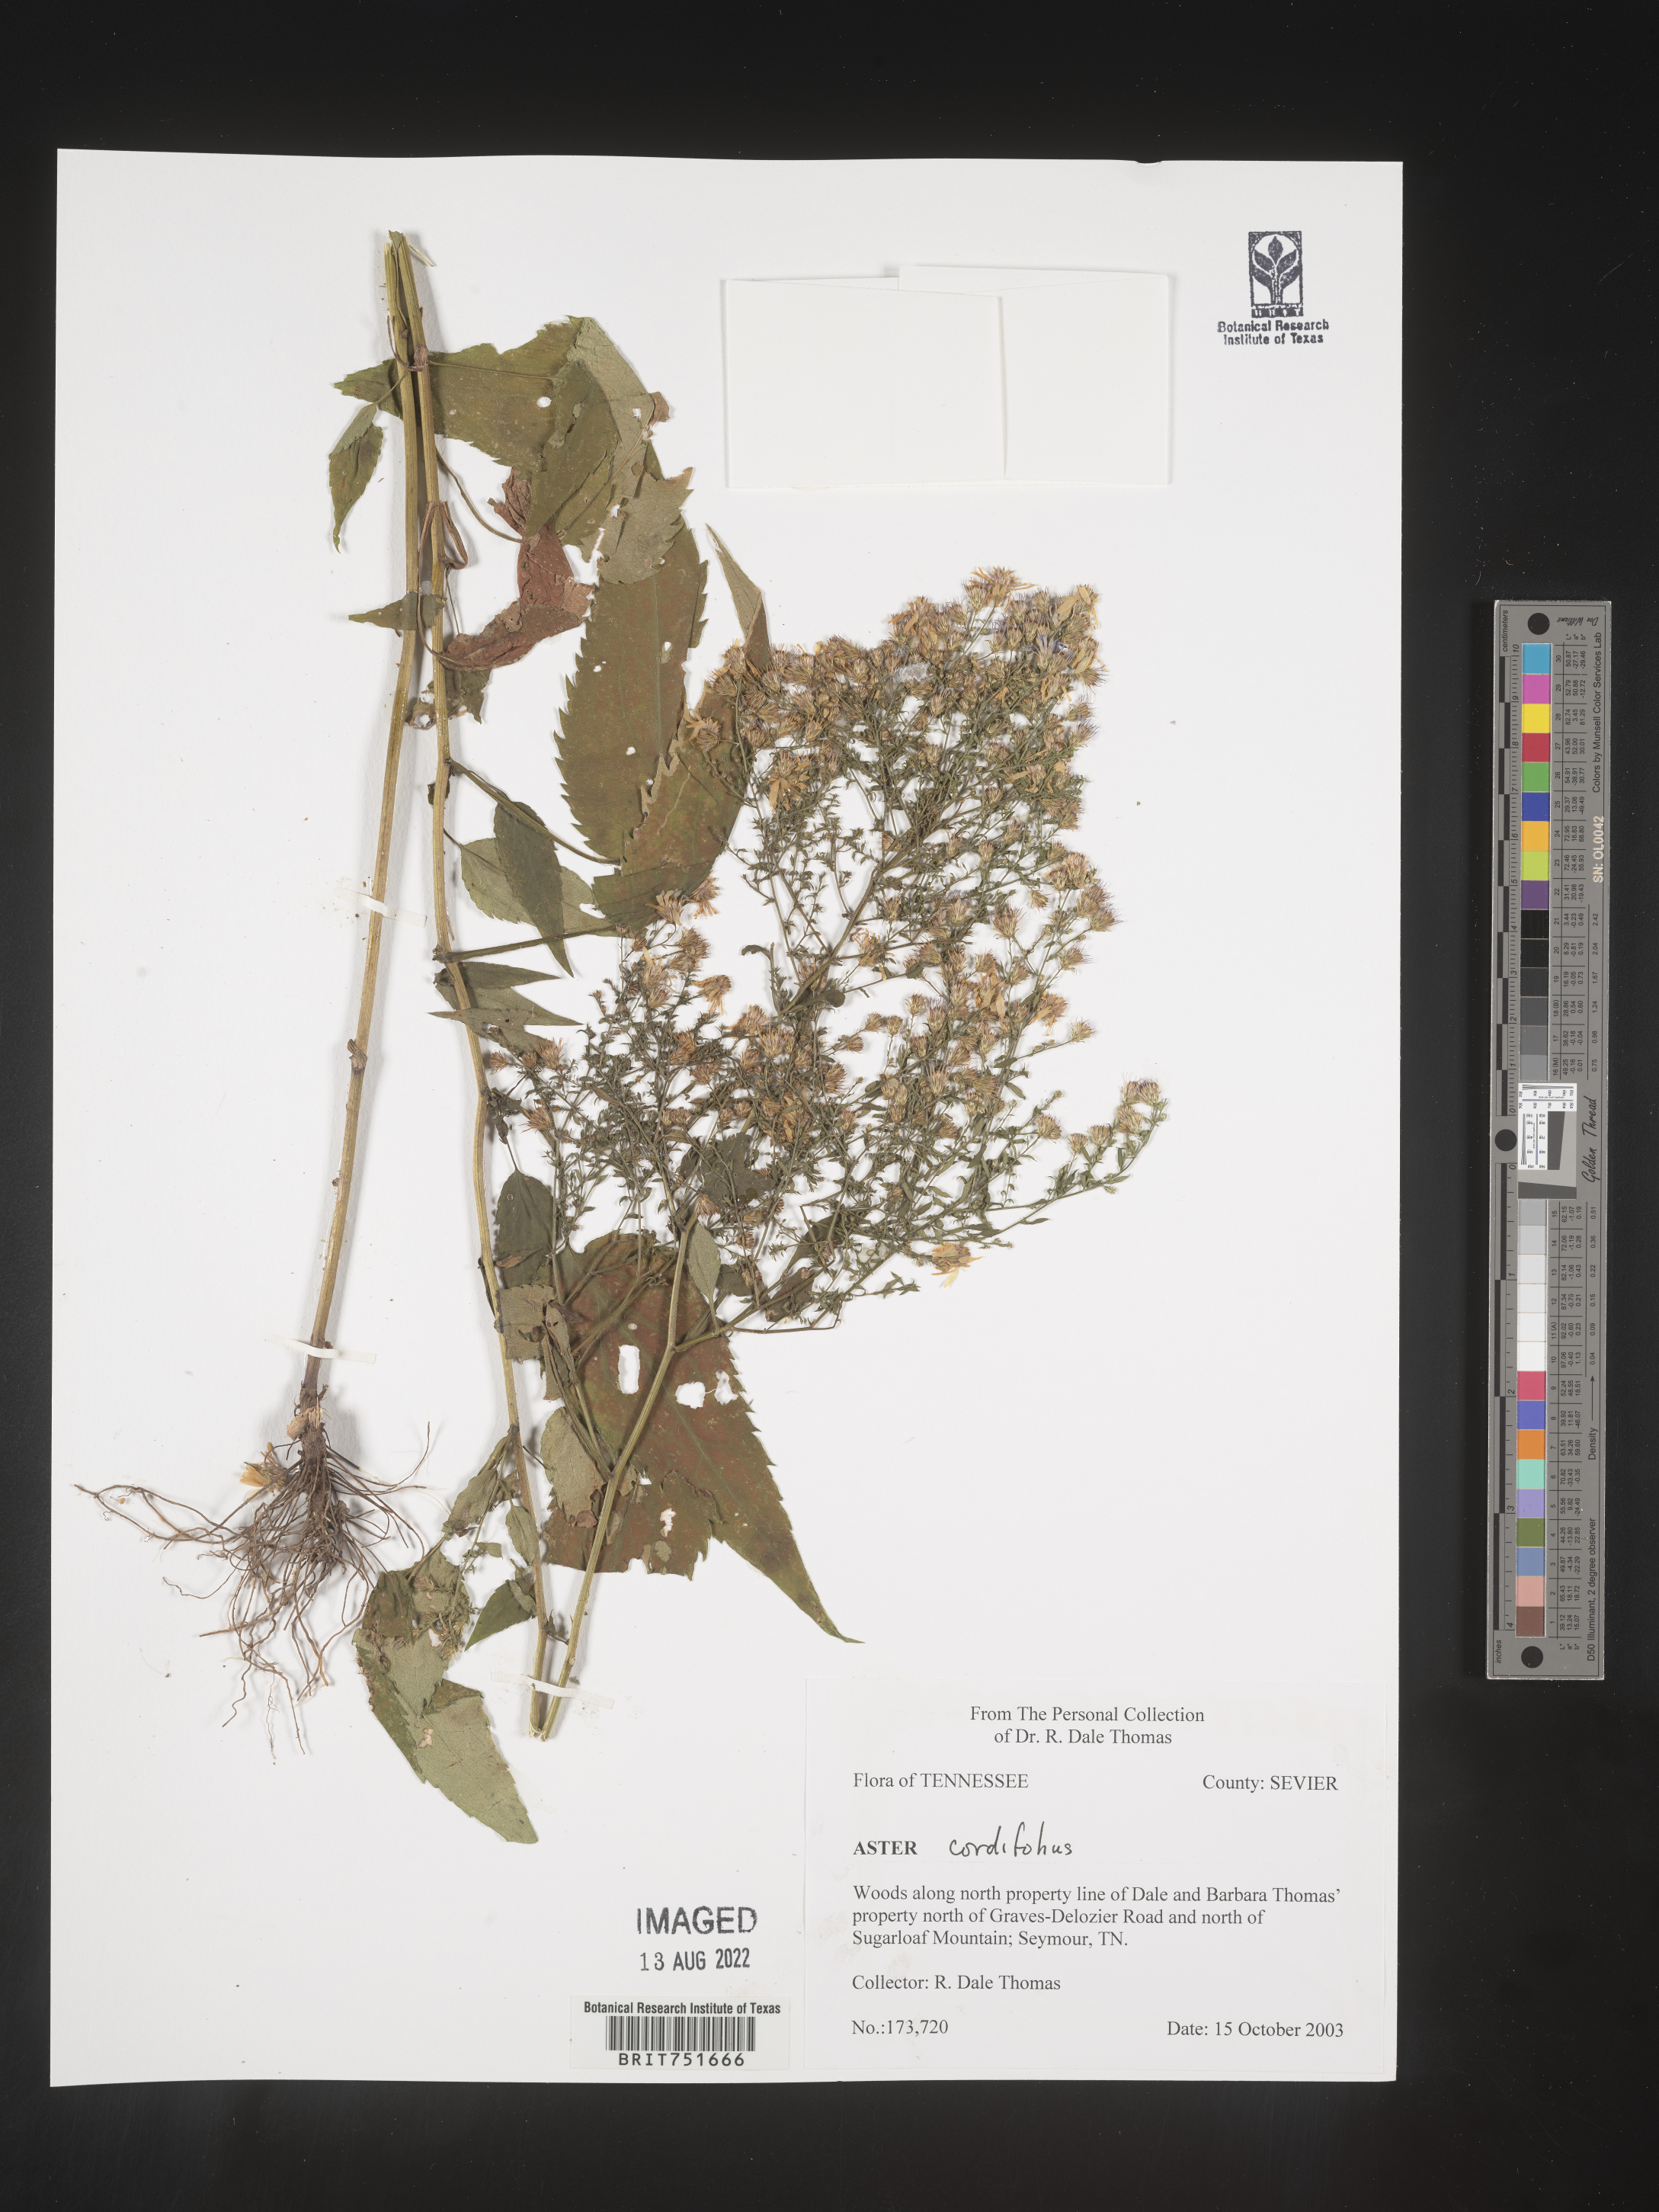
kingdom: Plantae
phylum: Tracheophyta
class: Magnoliopsida
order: Asterales
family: Asteraceae
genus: Symphyotrichum
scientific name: Symphyotrichum cordifolium
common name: Beeweed
